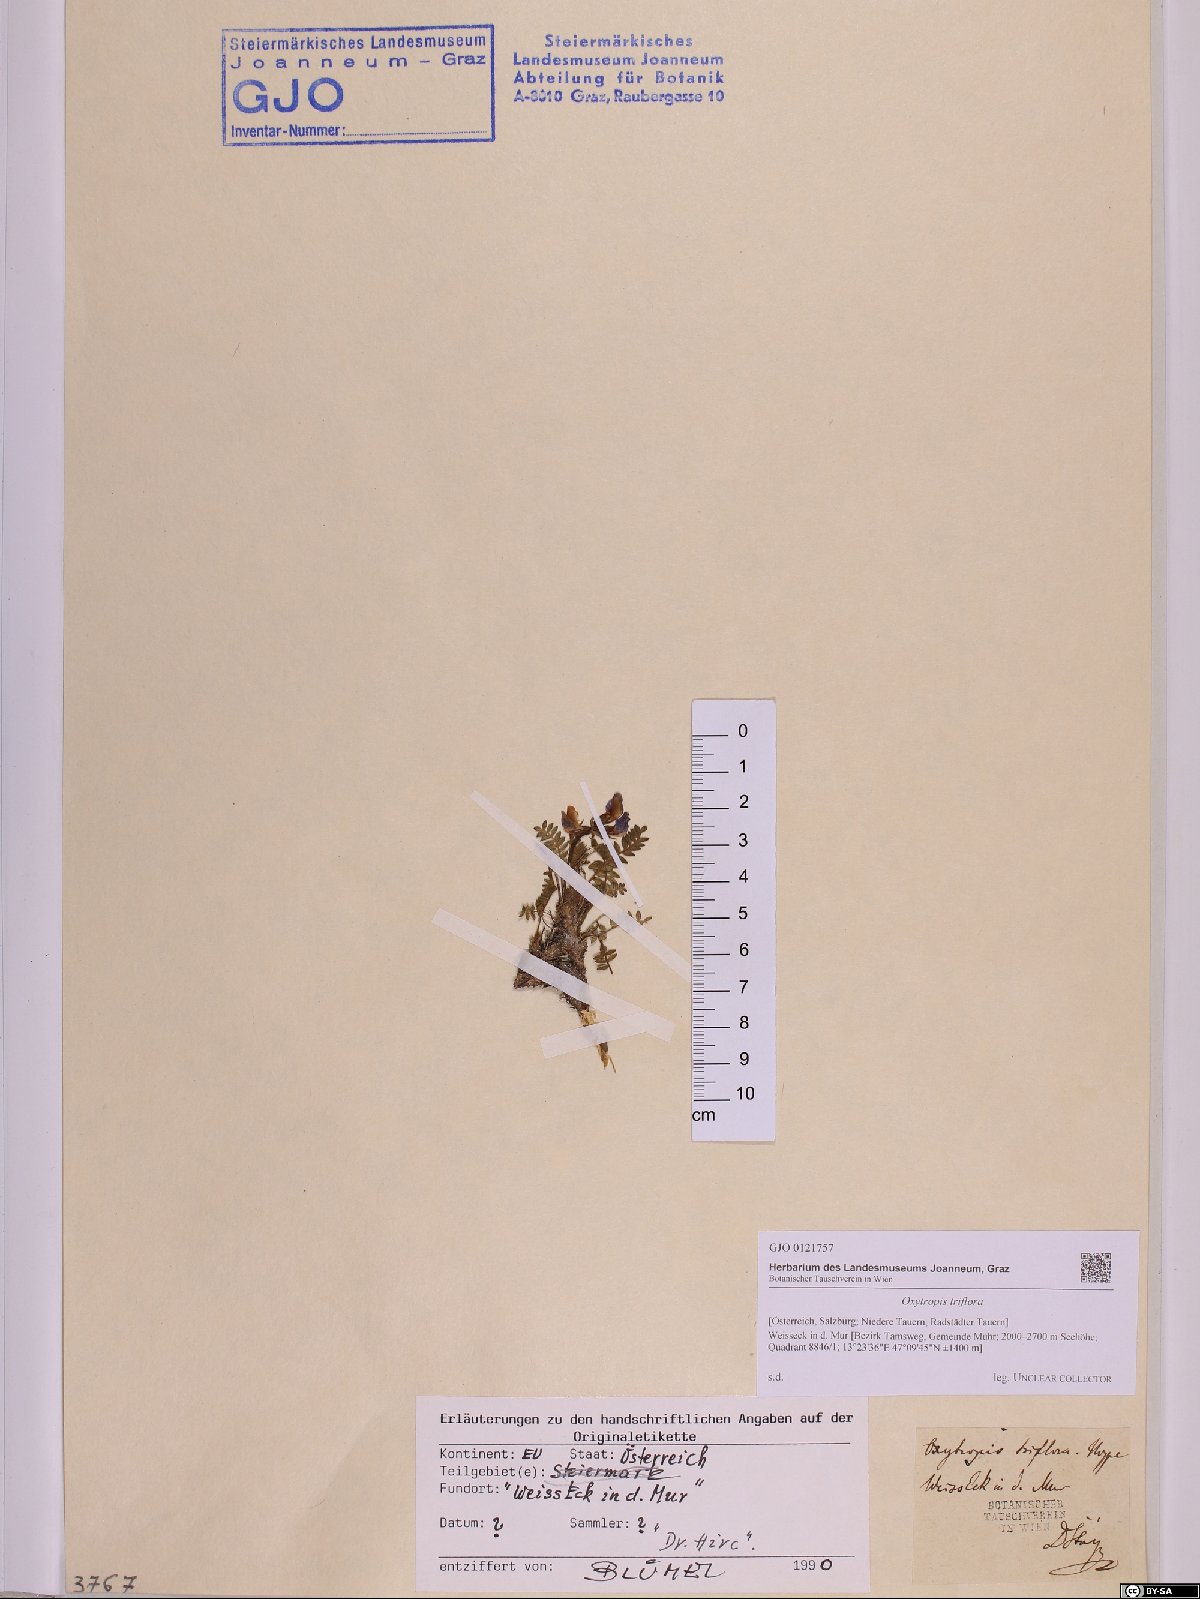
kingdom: Plantae
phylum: Tracheophyta
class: Magnoliopsida
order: Fabales
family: Fabaceae
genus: Oxytropis
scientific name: Oxytropis triflora
